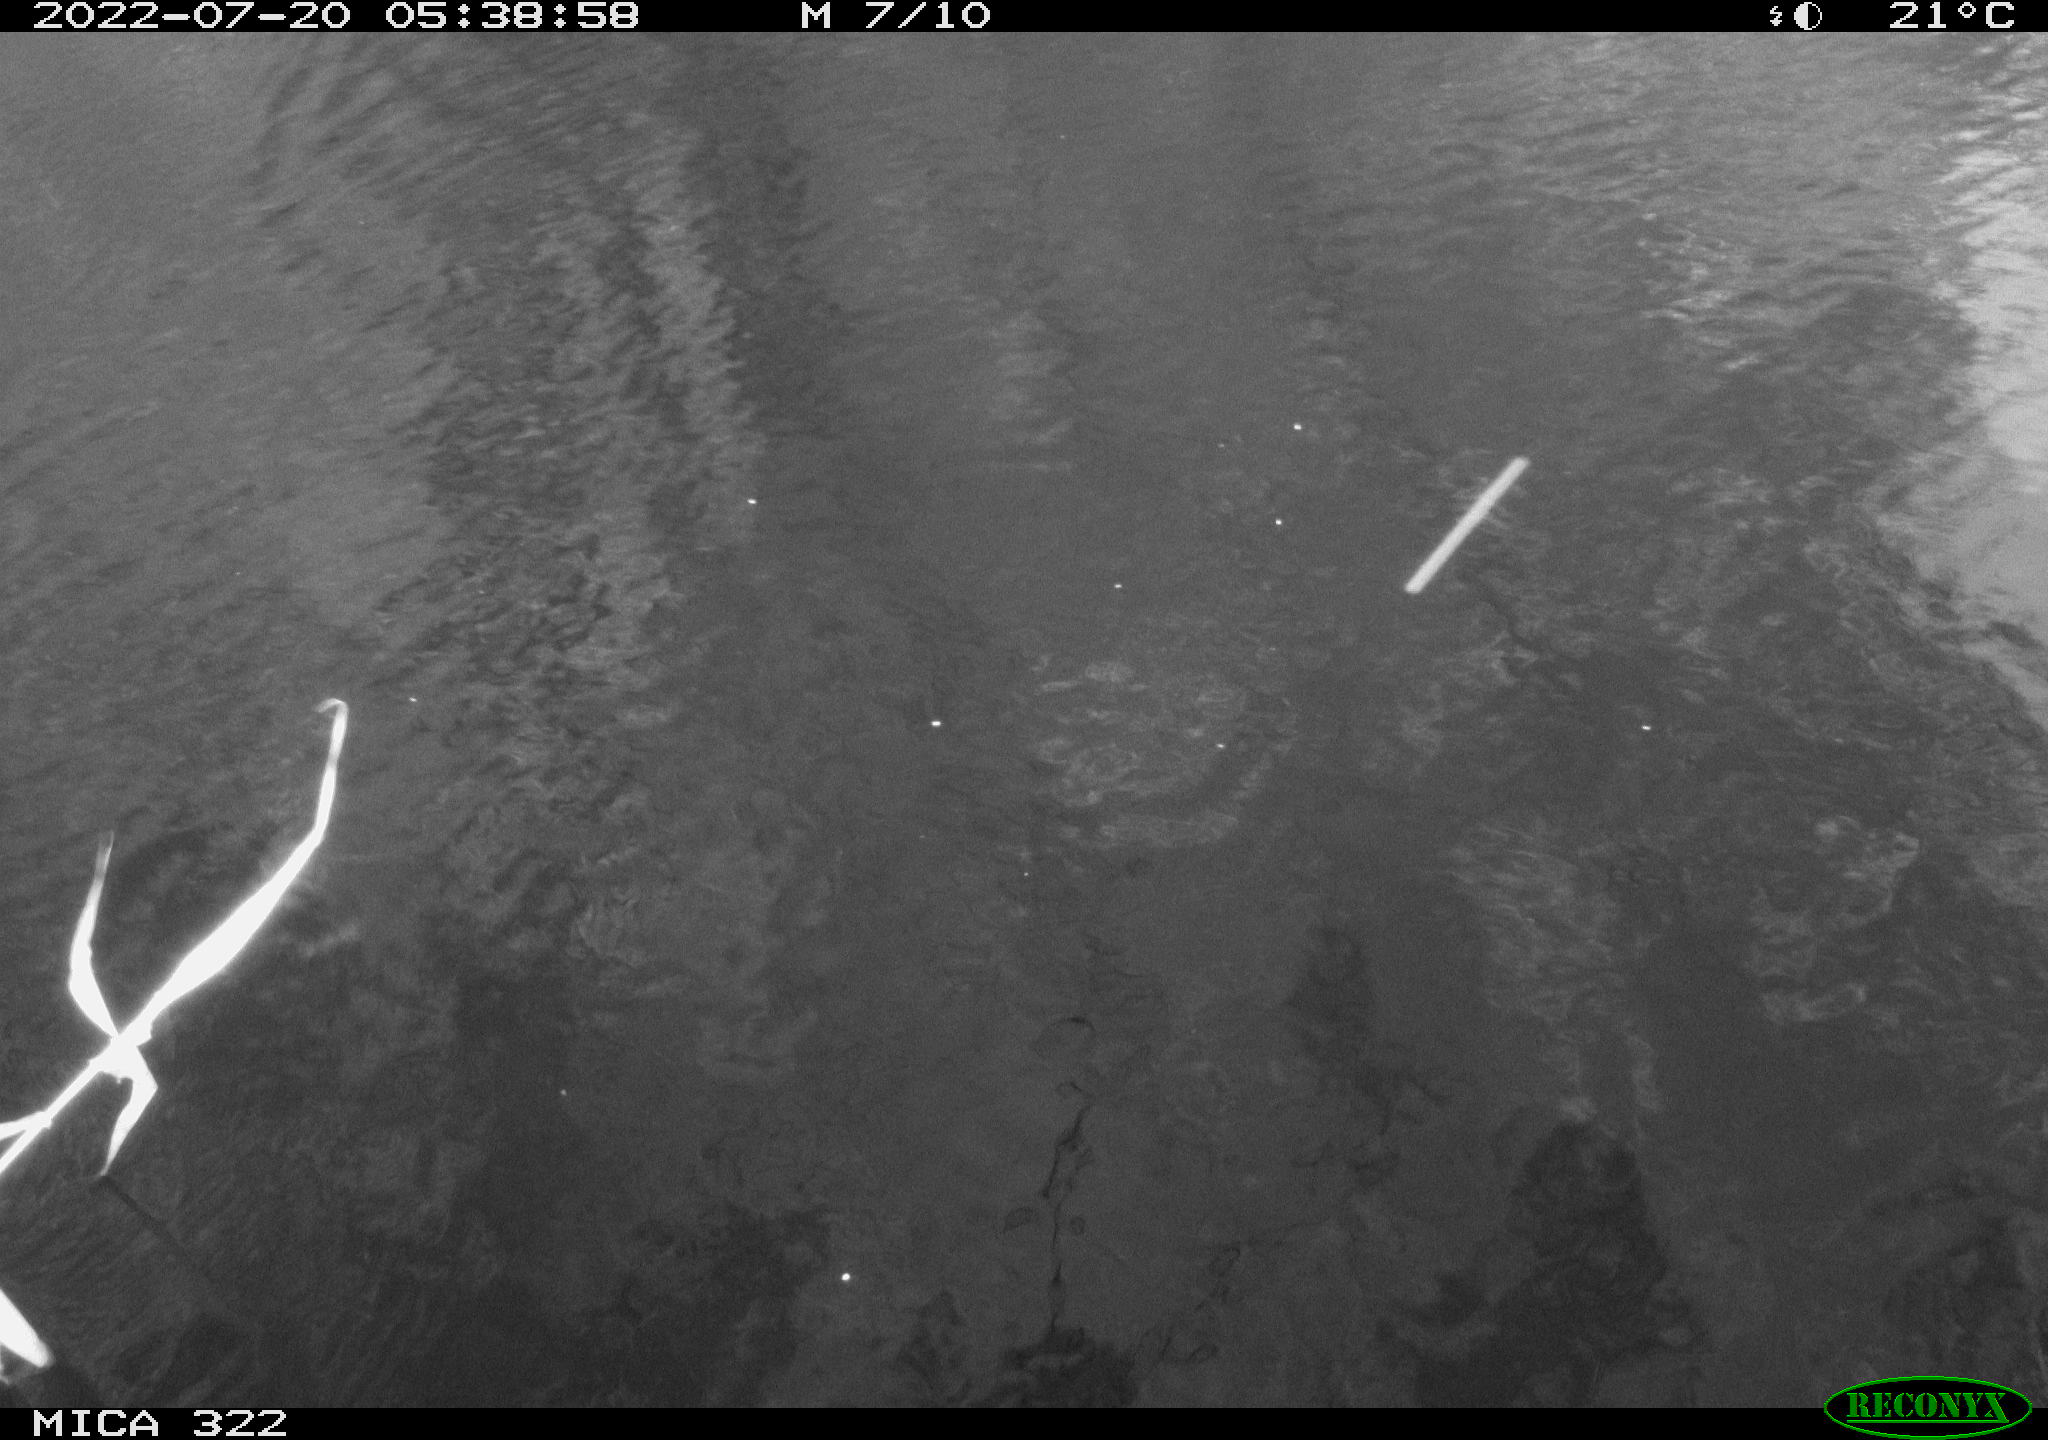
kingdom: Animalia
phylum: Chordata
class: Mammalia
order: Rodentia
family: Muridae
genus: Rattus
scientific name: Rattus norvegicus
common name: Brown rat
